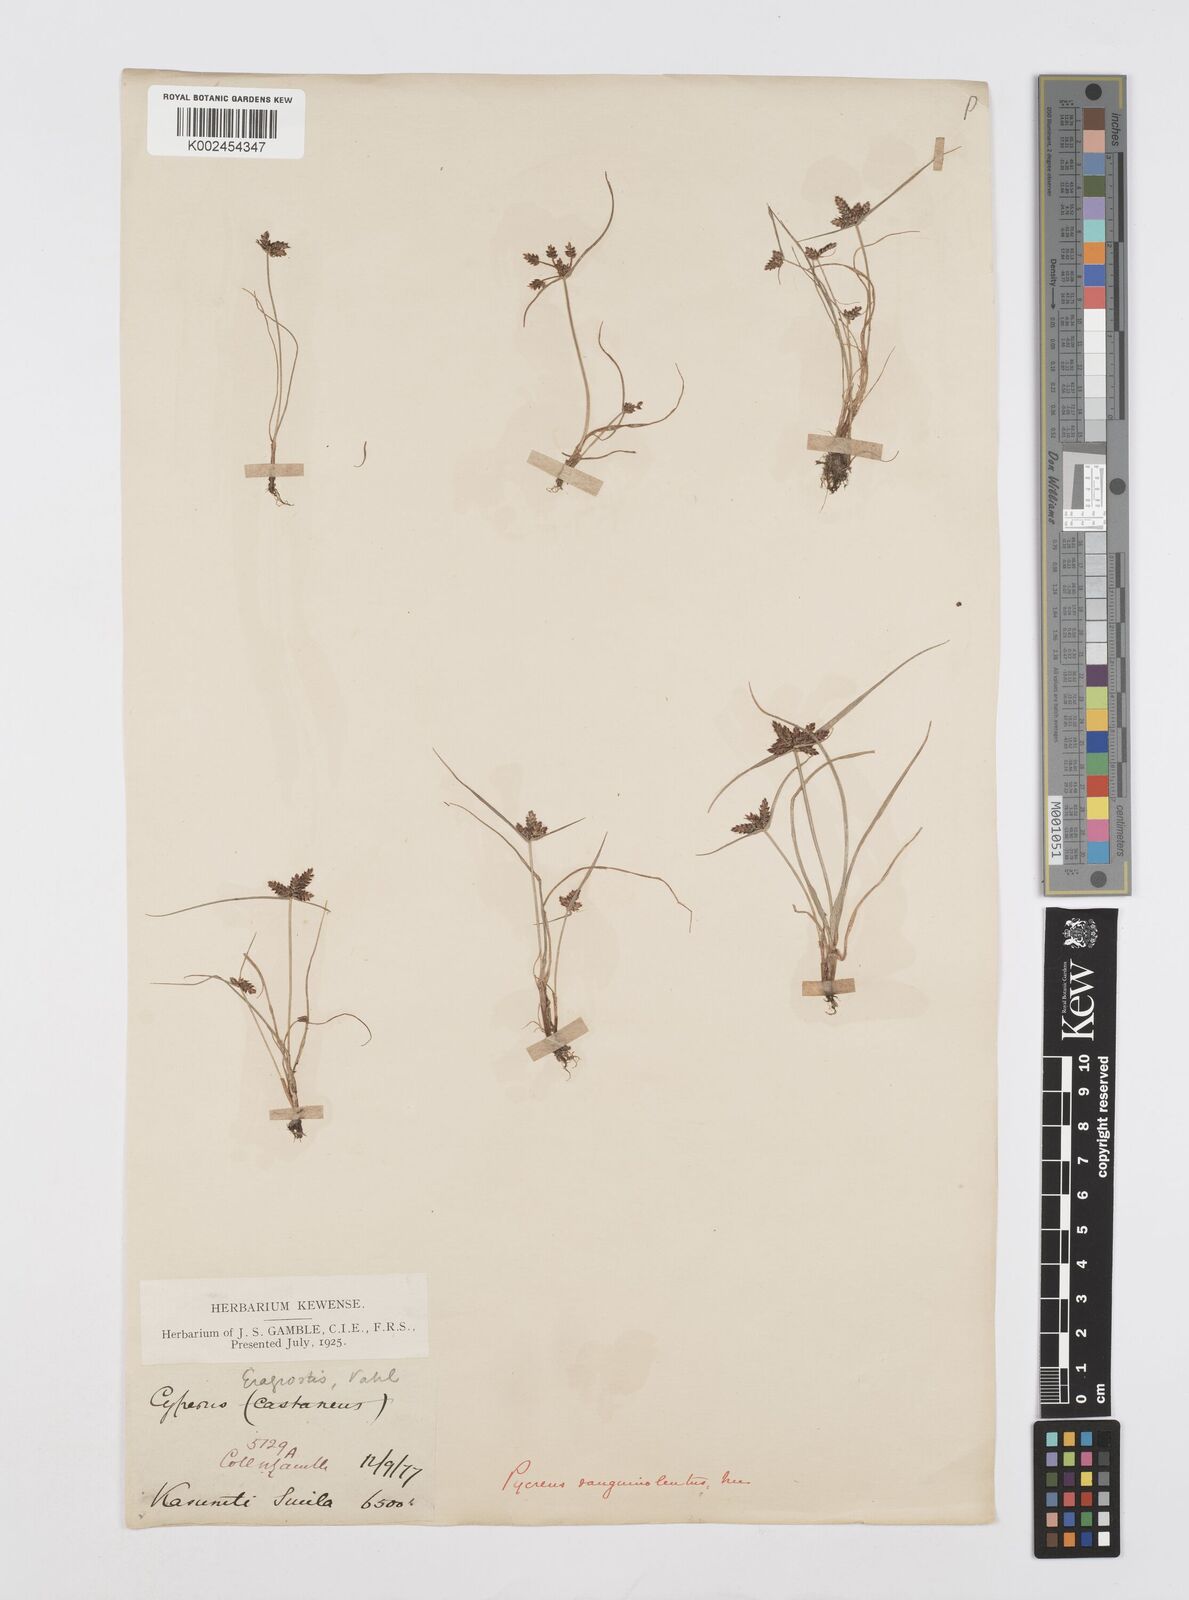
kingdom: Plantae
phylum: Tracheophyta
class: Liliopsida
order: Poales
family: Cyperaceae
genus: Cyperus
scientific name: Cyperus sanguinolentus
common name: Purpleglume flatsedge
